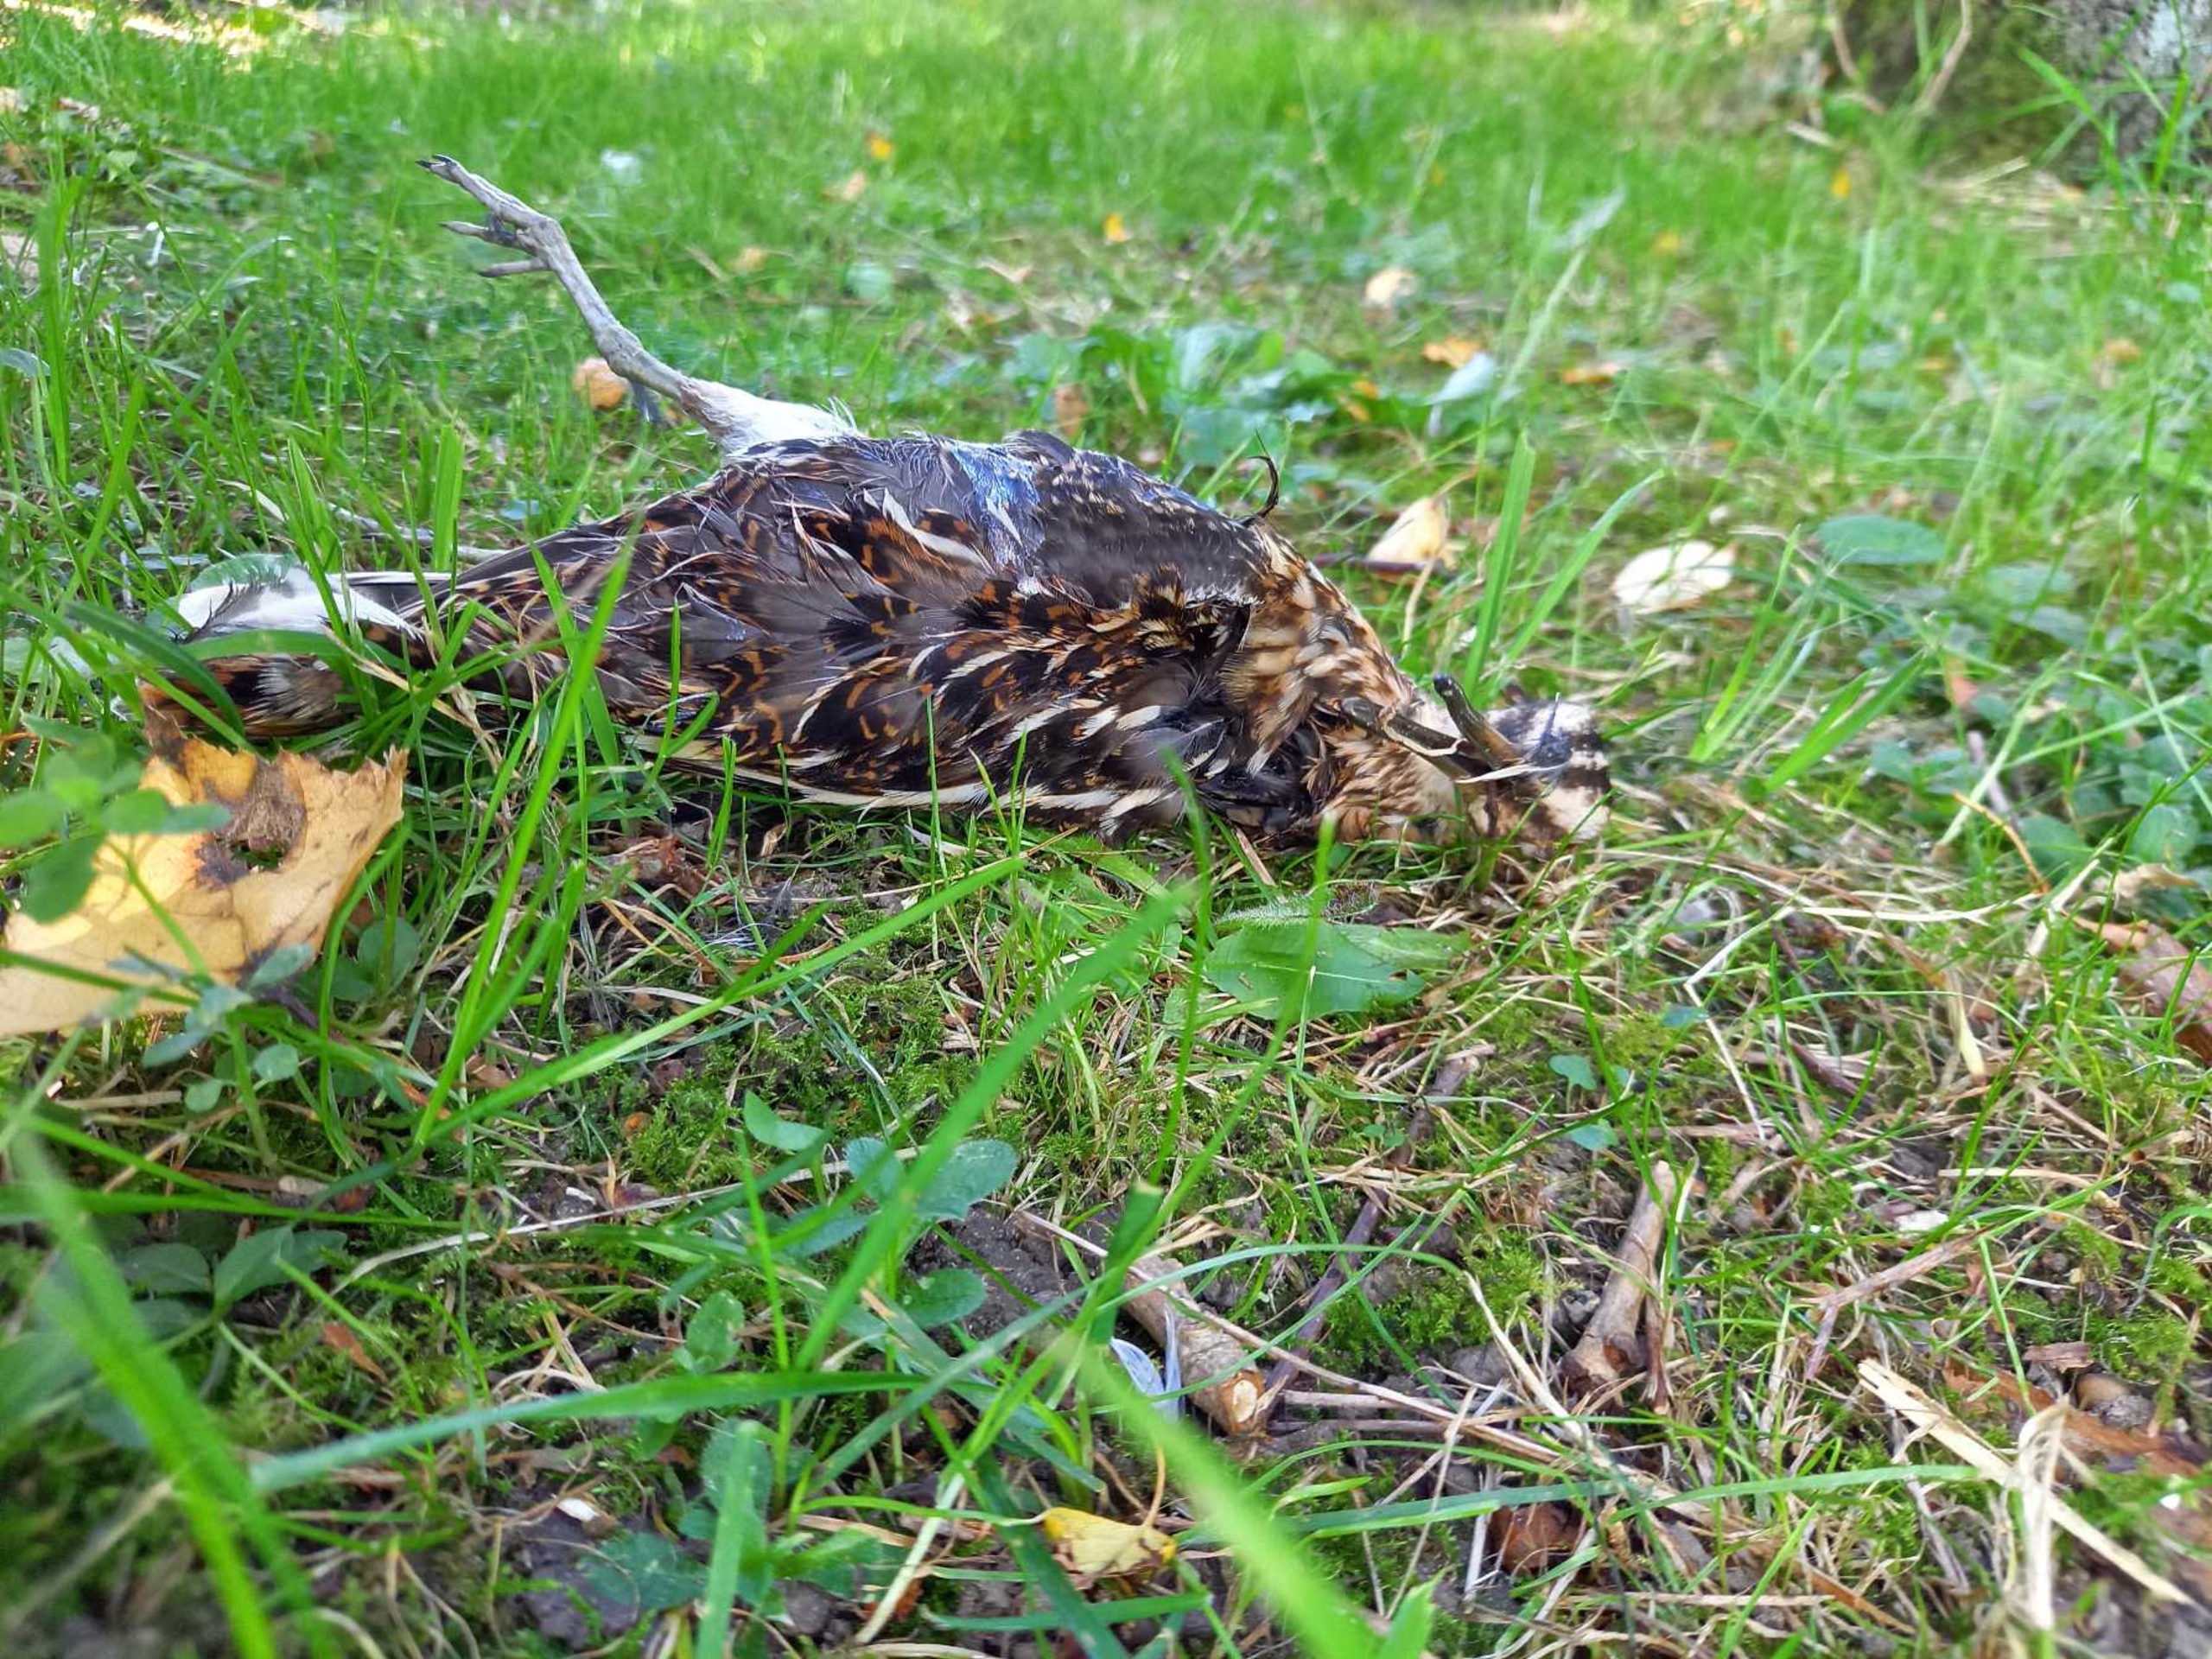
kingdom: Animalia
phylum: Chordata
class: Aves
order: Charadriiformes
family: Scolopacidae
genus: Gallinago
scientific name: Gallinago gallinago
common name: Dobbeltbekkasin
